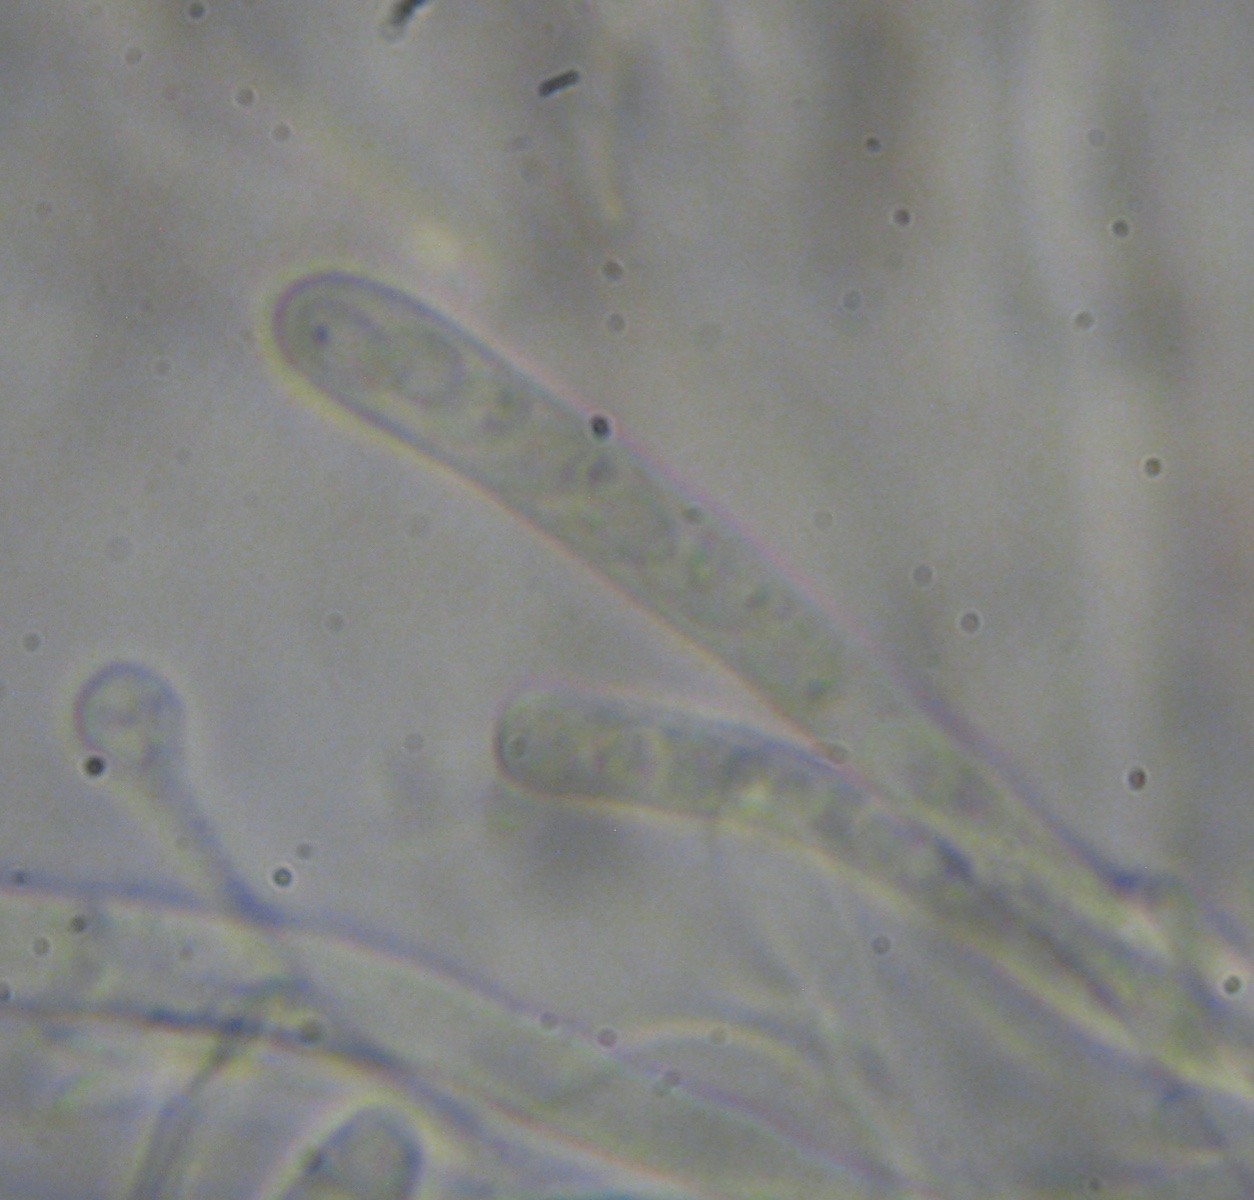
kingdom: Fungi
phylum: Ascomycota
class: Orbiliomycetes
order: Orbiliales
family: Orbiliaceae
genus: Orbilia
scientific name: Orbilia eucalypti
